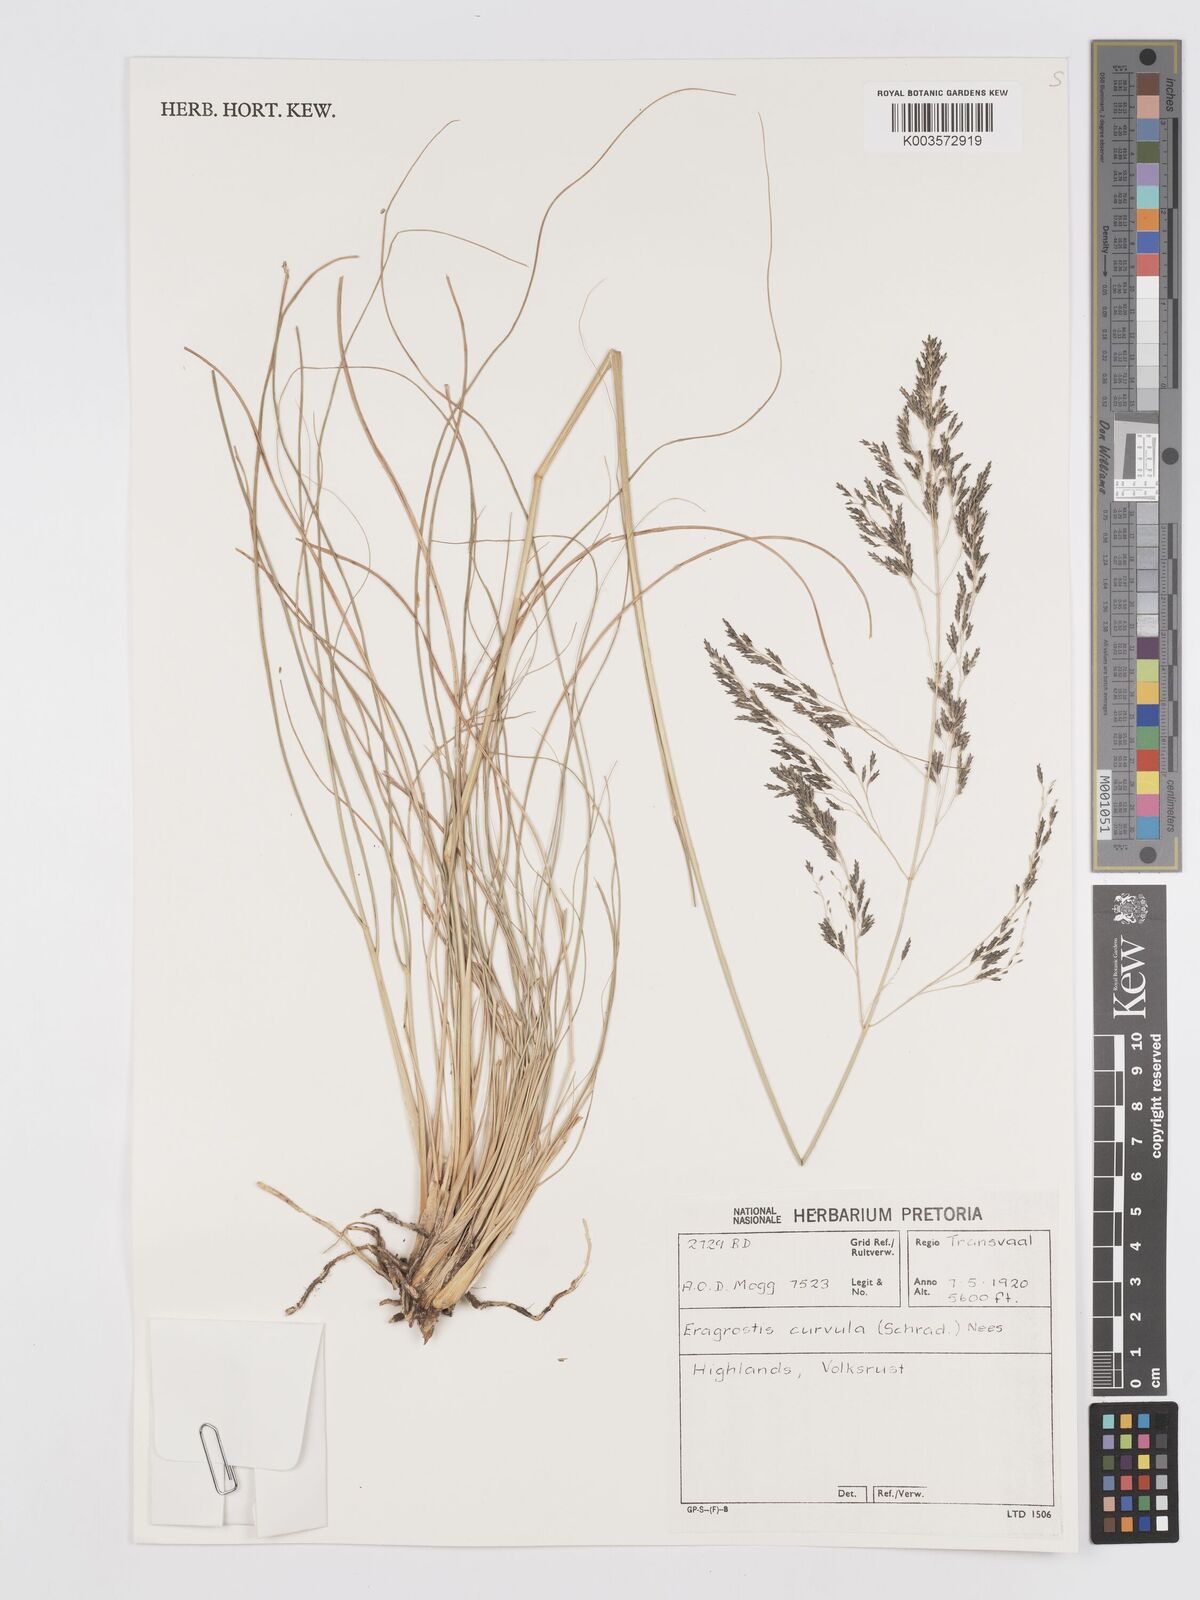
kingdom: Plantae
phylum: Tracheophyta
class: Liliopsida
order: Poales
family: Poaceae
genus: Eragrostis
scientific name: Eragrostis curvula
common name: African love-grass
